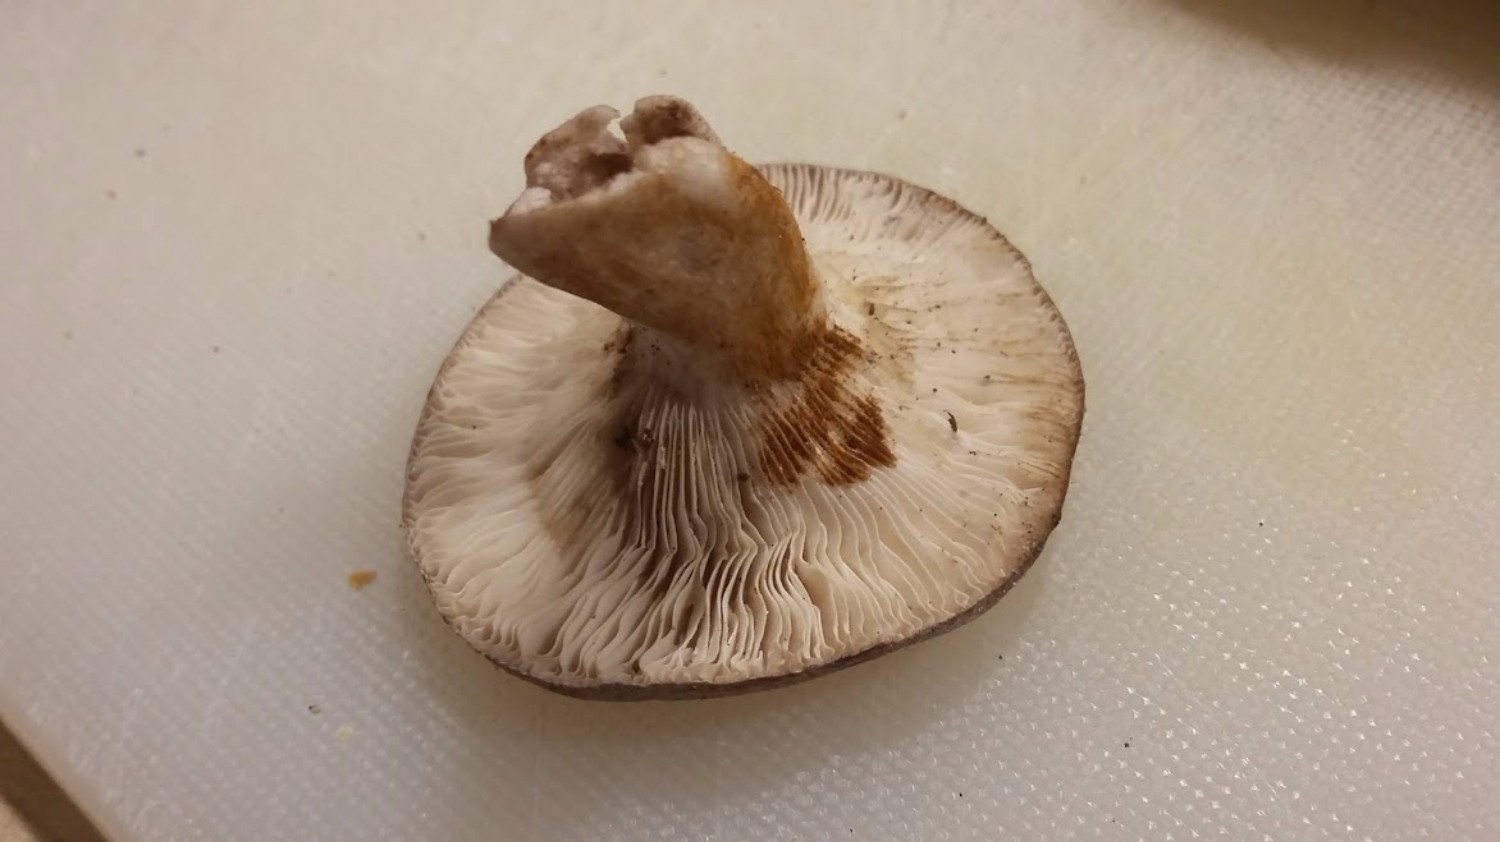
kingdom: Fungi
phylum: Basidiomycota
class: Agaricomycetes
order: Russulales
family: Russulaceae
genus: Lactifluus
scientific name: Lactifluus
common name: mælkehat
